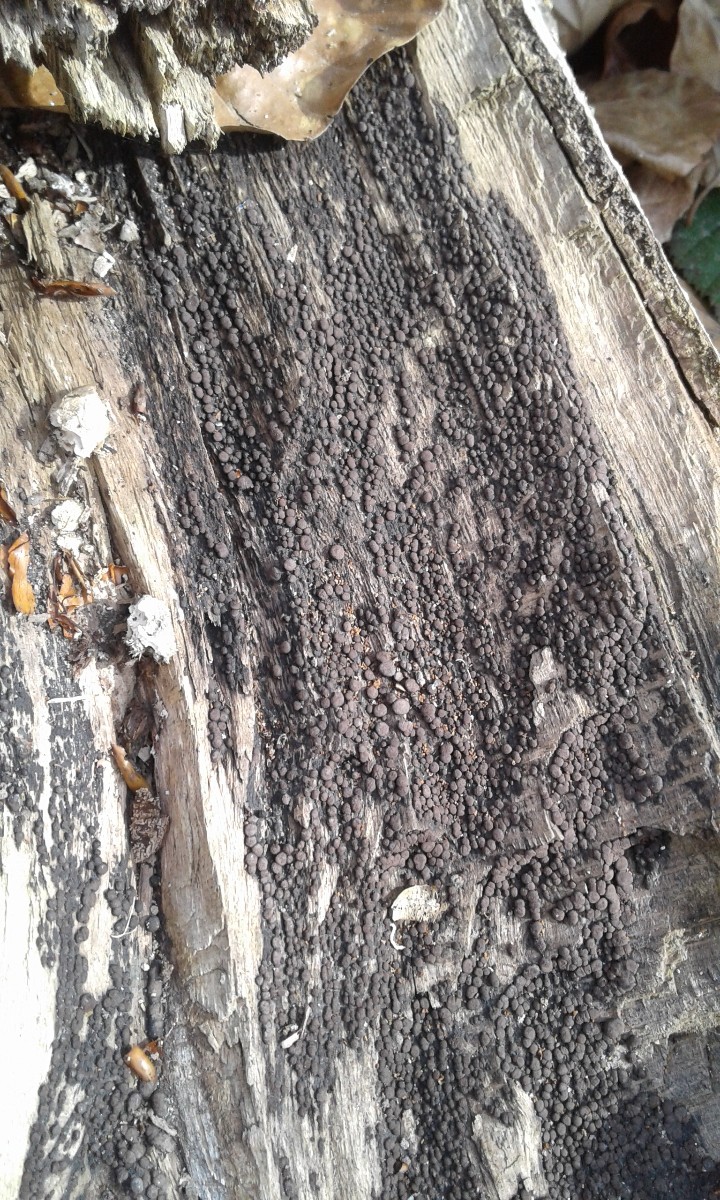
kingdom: Fungi
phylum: Ascomycota
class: Sordariomycetes
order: Xylariales
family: Hypoxylaceae
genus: Jackrogersella
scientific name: Jackrogersella cohaerens
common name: sammenflydende kulbær
